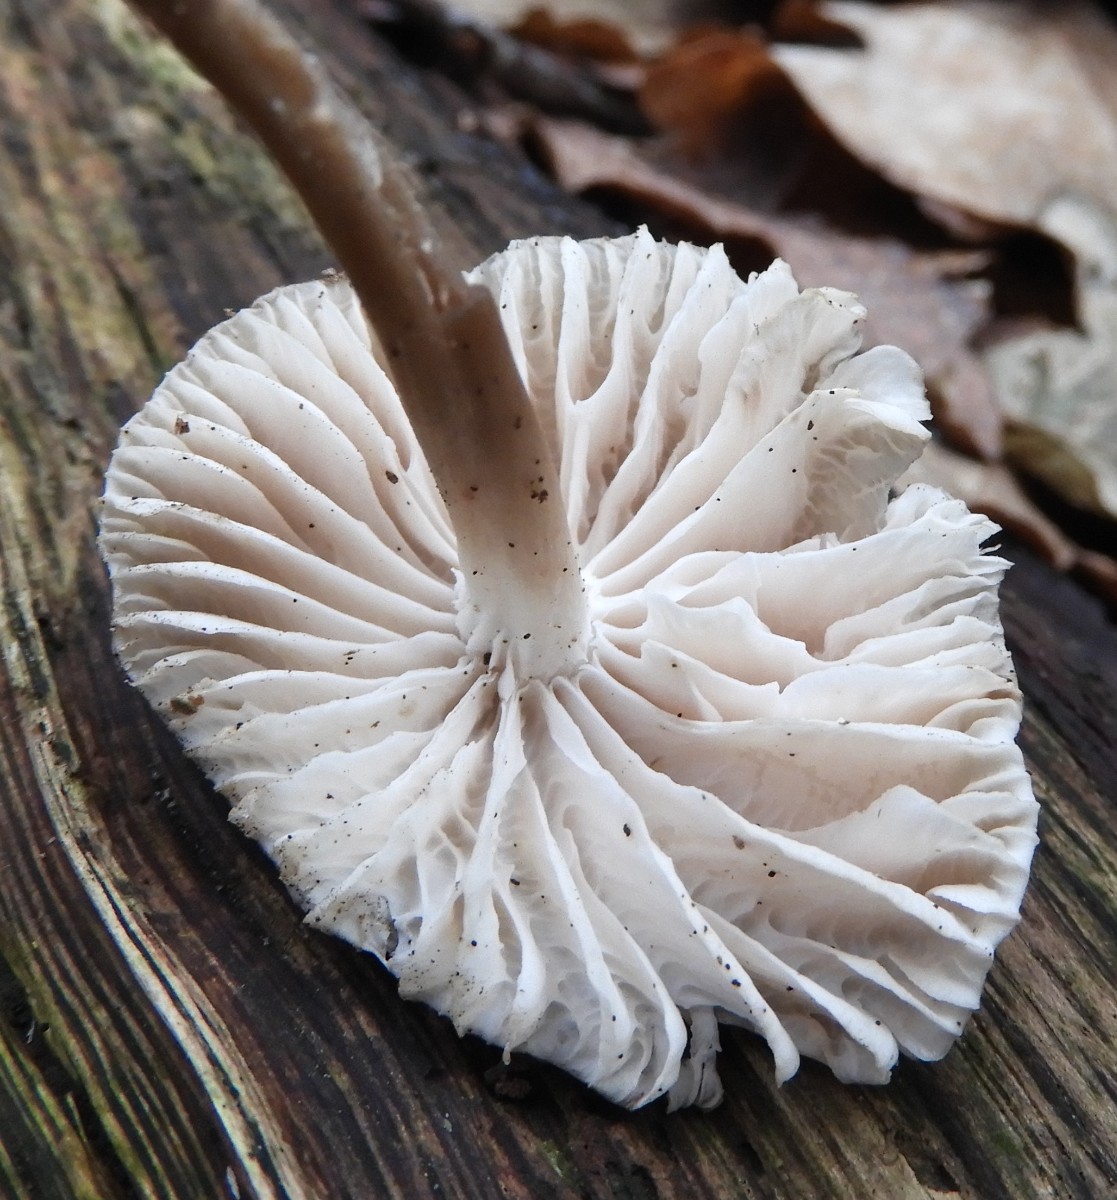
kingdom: Fungi
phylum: Basidiomycota
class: Agaricomycetes
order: Agaricales
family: Mycenaceae
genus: Mycena
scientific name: Mycena galericulata
